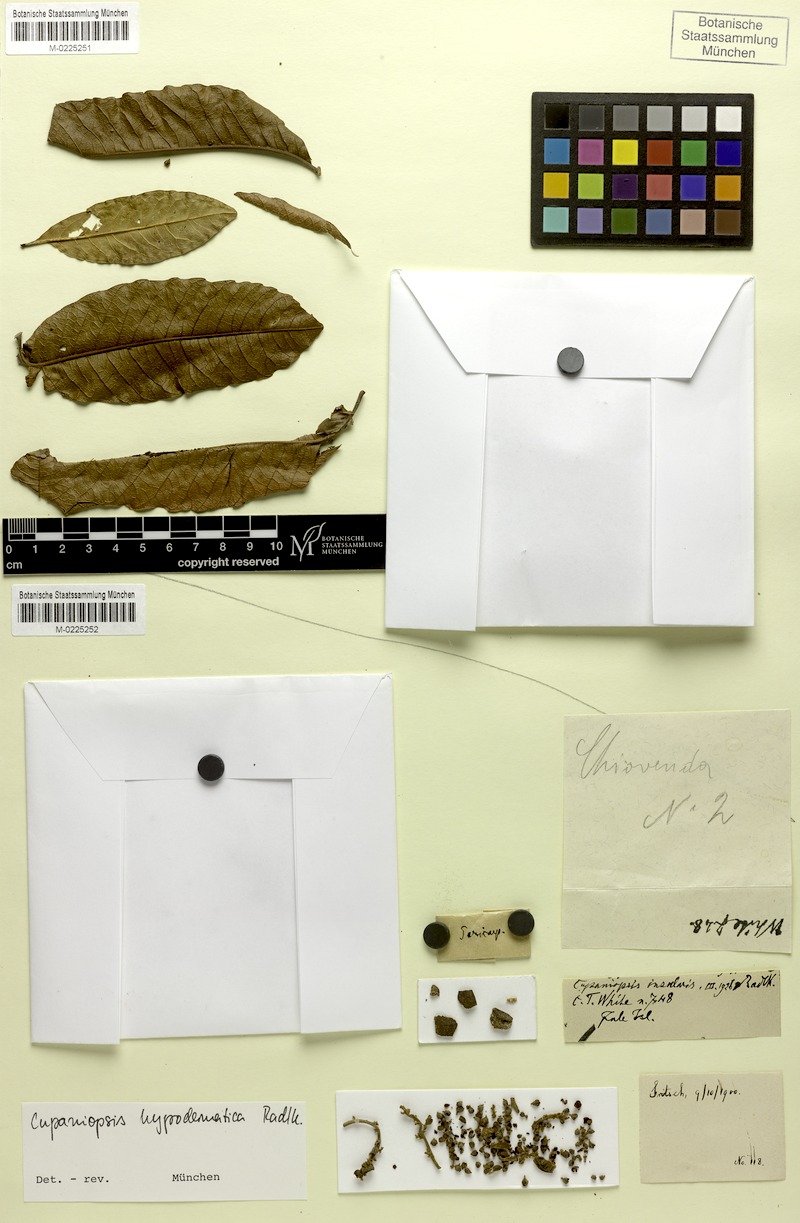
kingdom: Plantae
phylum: Tracheophyta
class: Magnoliopsida
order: Sapindales
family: Sapindaceae
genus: Cupaniopsis
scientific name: Cupaniopsis hypodermatica
